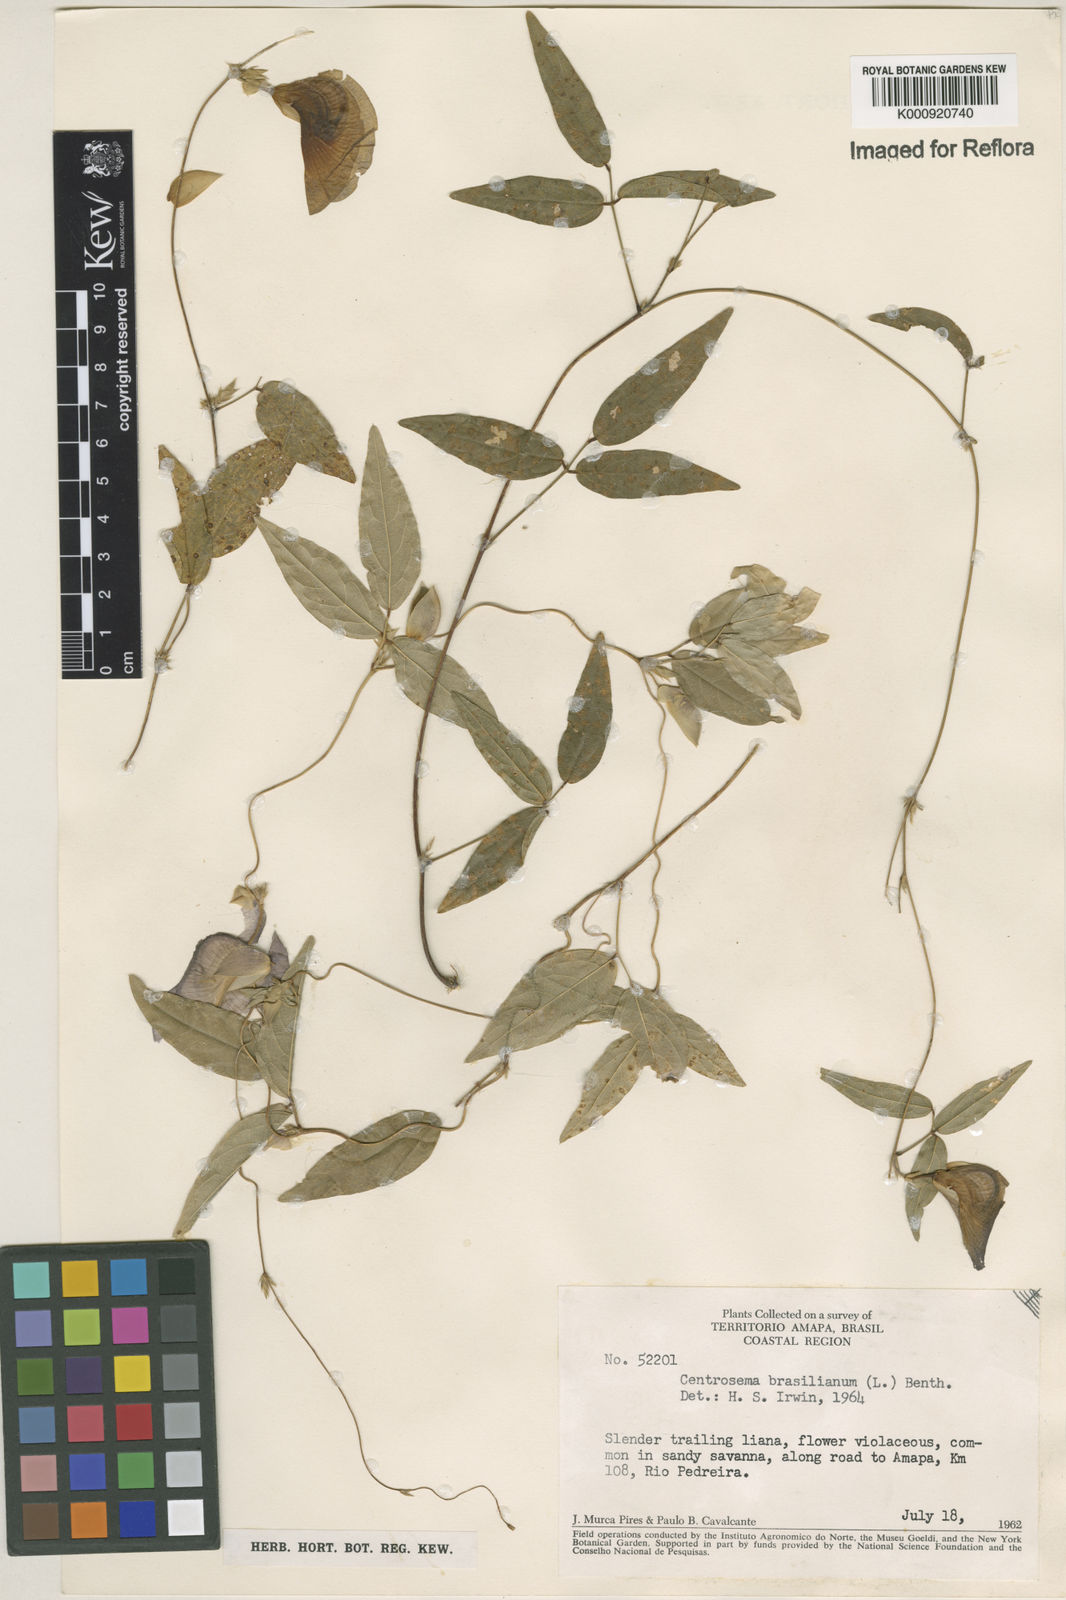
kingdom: Plantae
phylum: Tracheophyta
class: Magnoliopsida
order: Fabales
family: Fabaceae
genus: Centrosema
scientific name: Centrosema brasilianum
